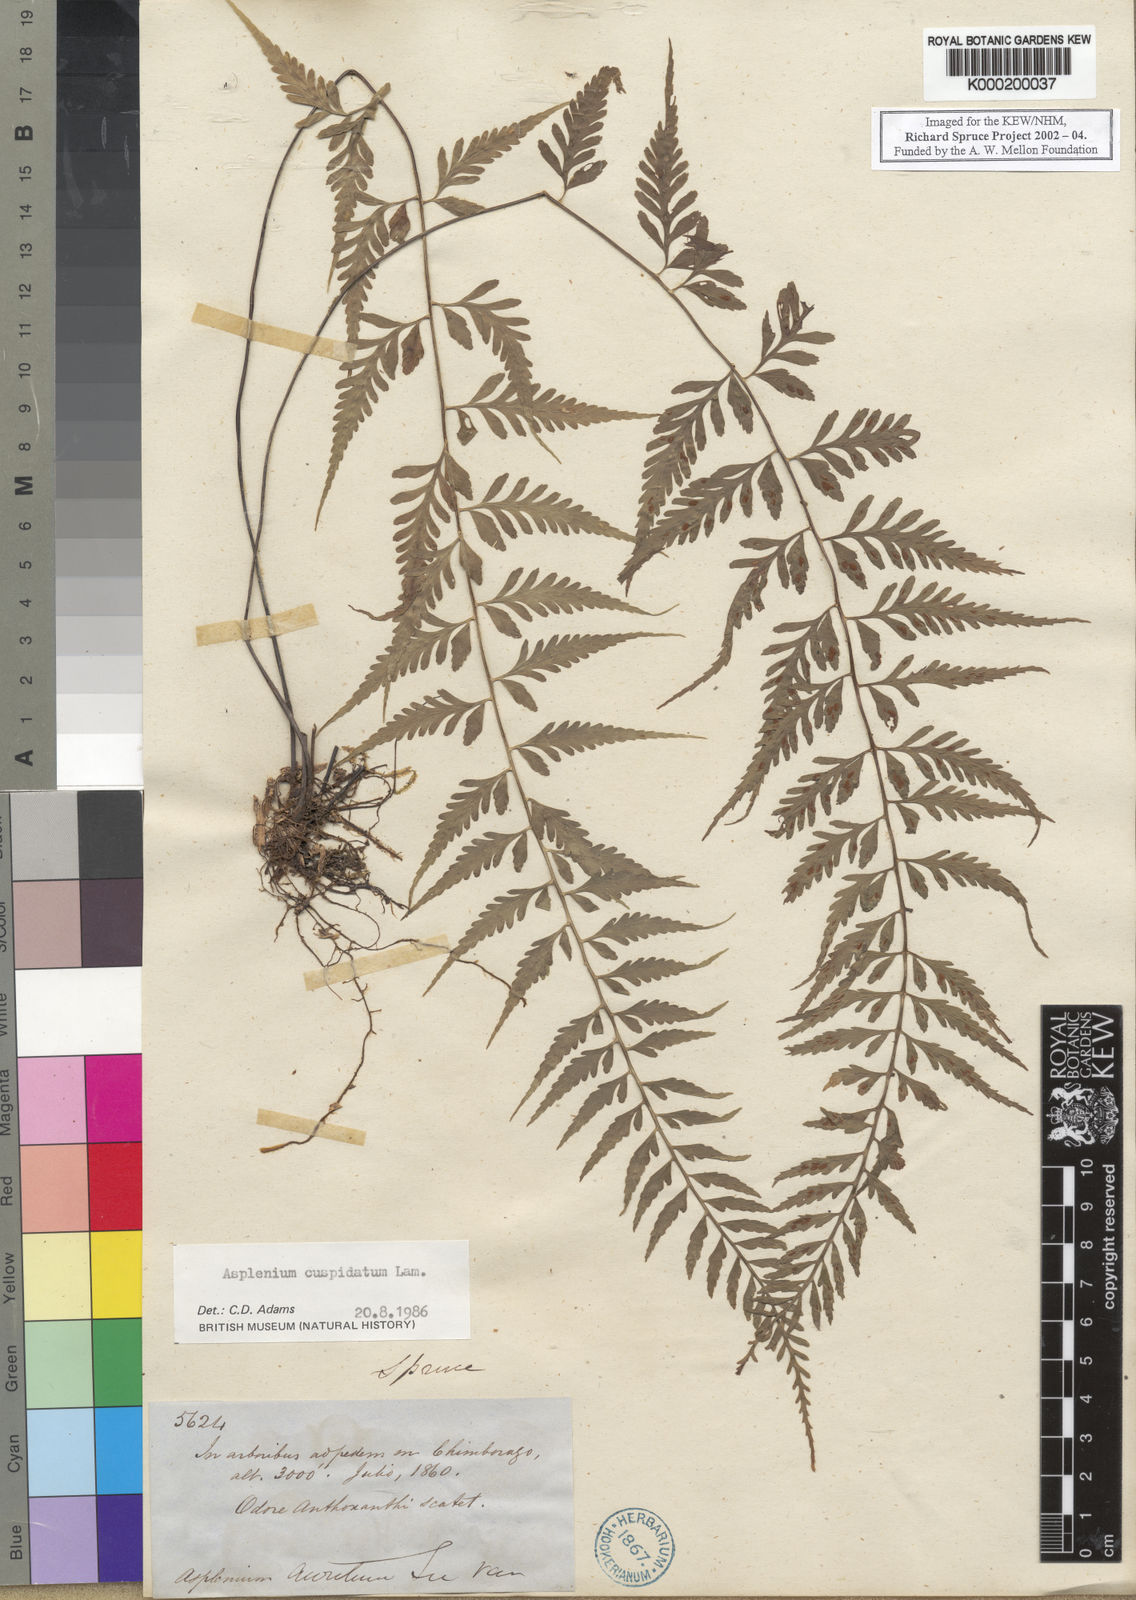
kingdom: Plantae
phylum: Tracheophyta
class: Polypodiopsida
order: Polypodiales
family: Aspleniaceae
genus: Asplenium
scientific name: Asplenium cuspidatum
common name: Eared spleenwort
